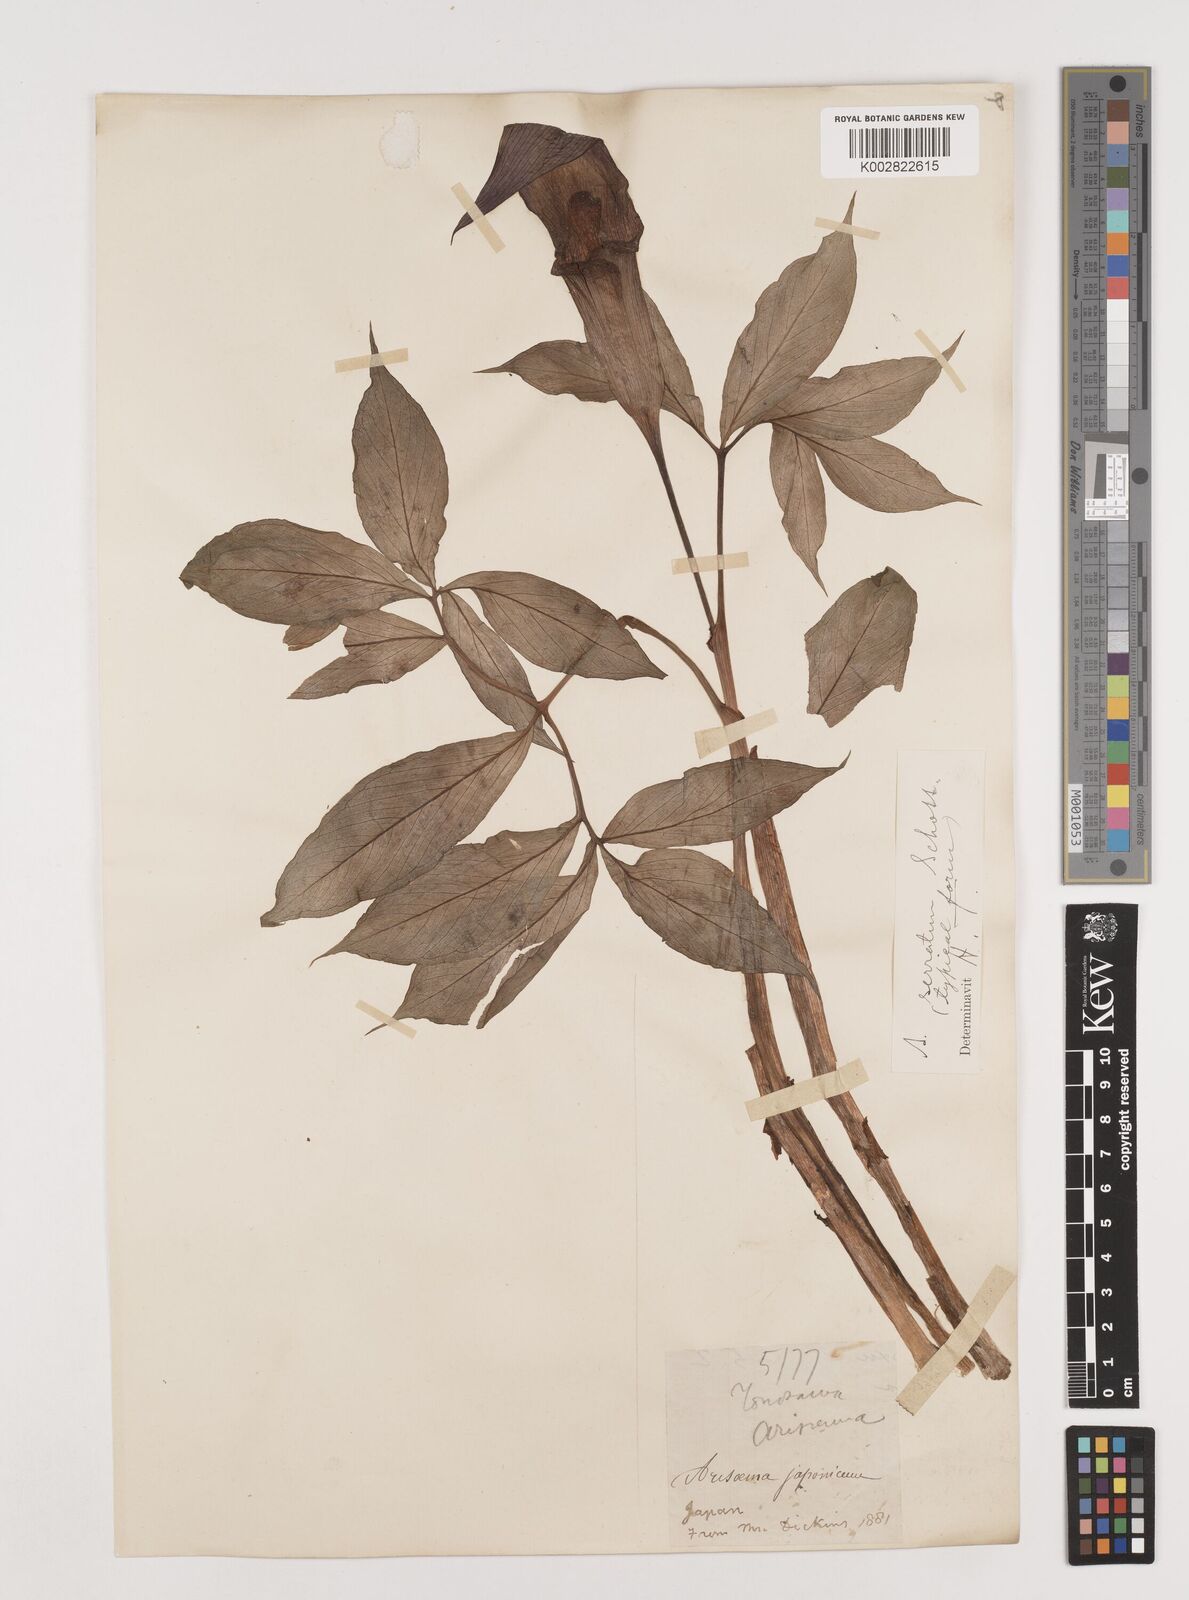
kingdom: Plantae
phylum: Tracheophyta
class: Liliopsida
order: Alismatales
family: Araceae
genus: Arisaema
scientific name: Arisaema serratum
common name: Japanese arisaema
